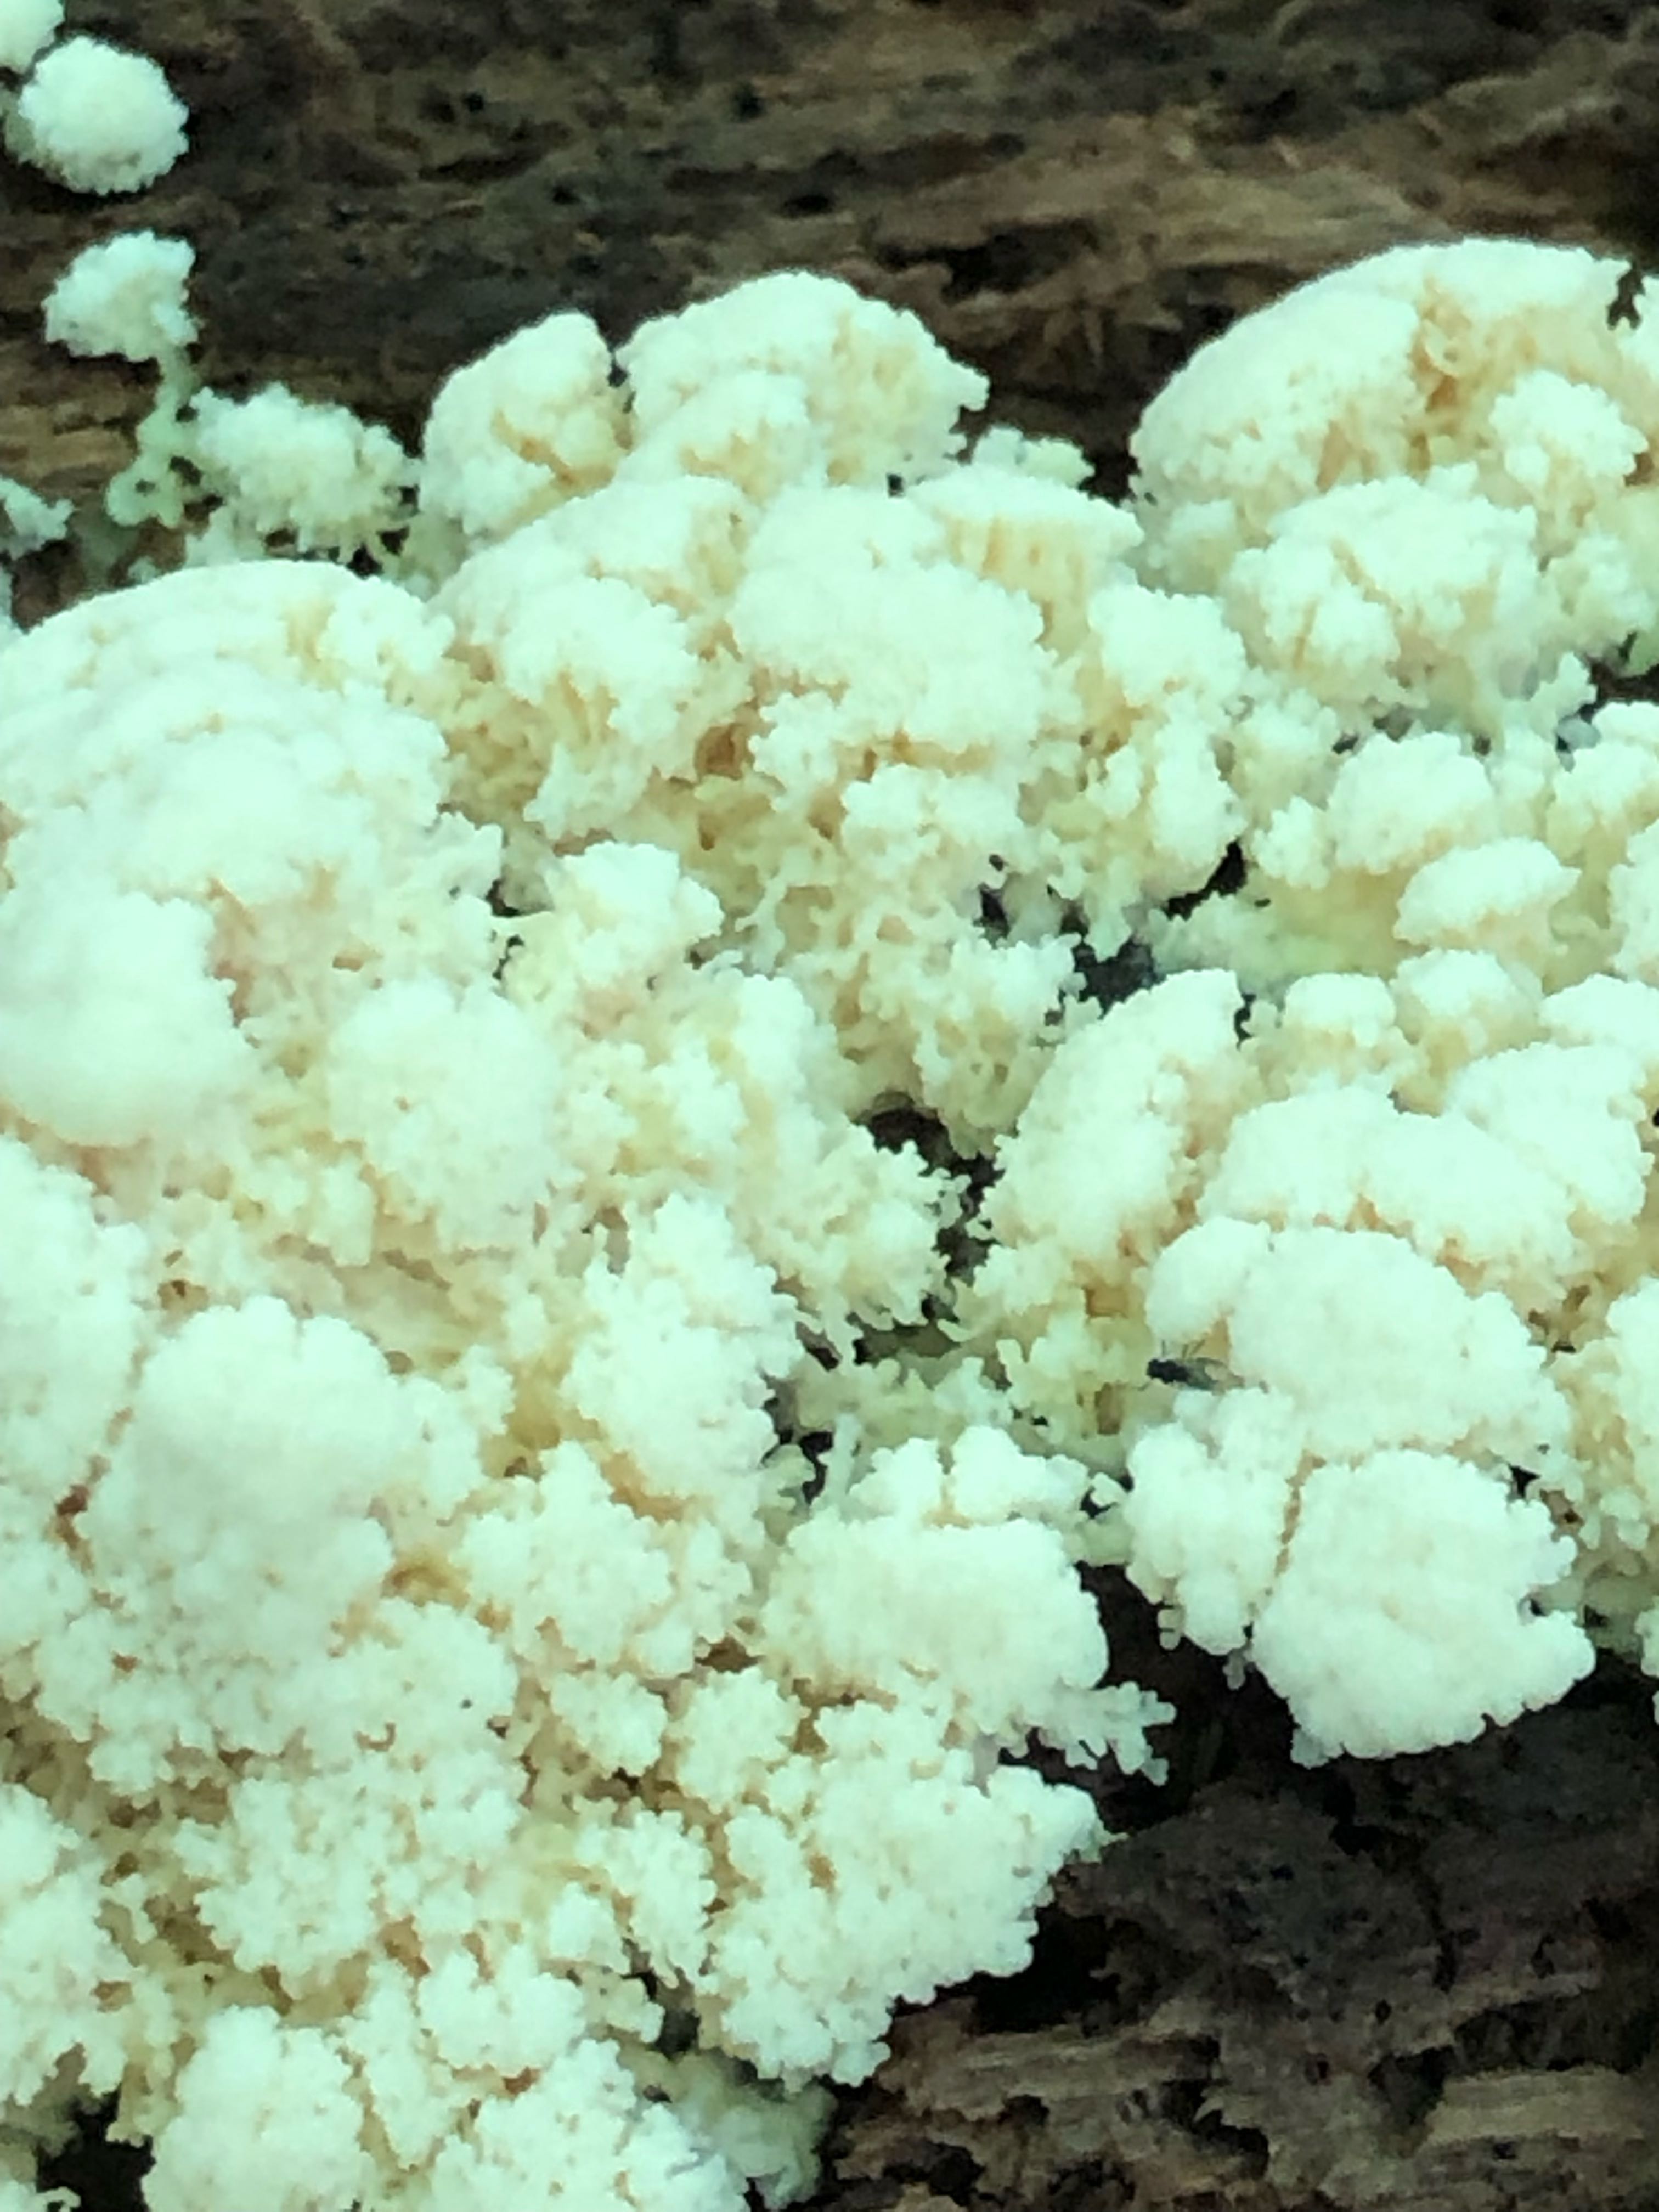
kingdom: Protozoa
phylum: Mycetozoa
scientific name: Mycetozoa
